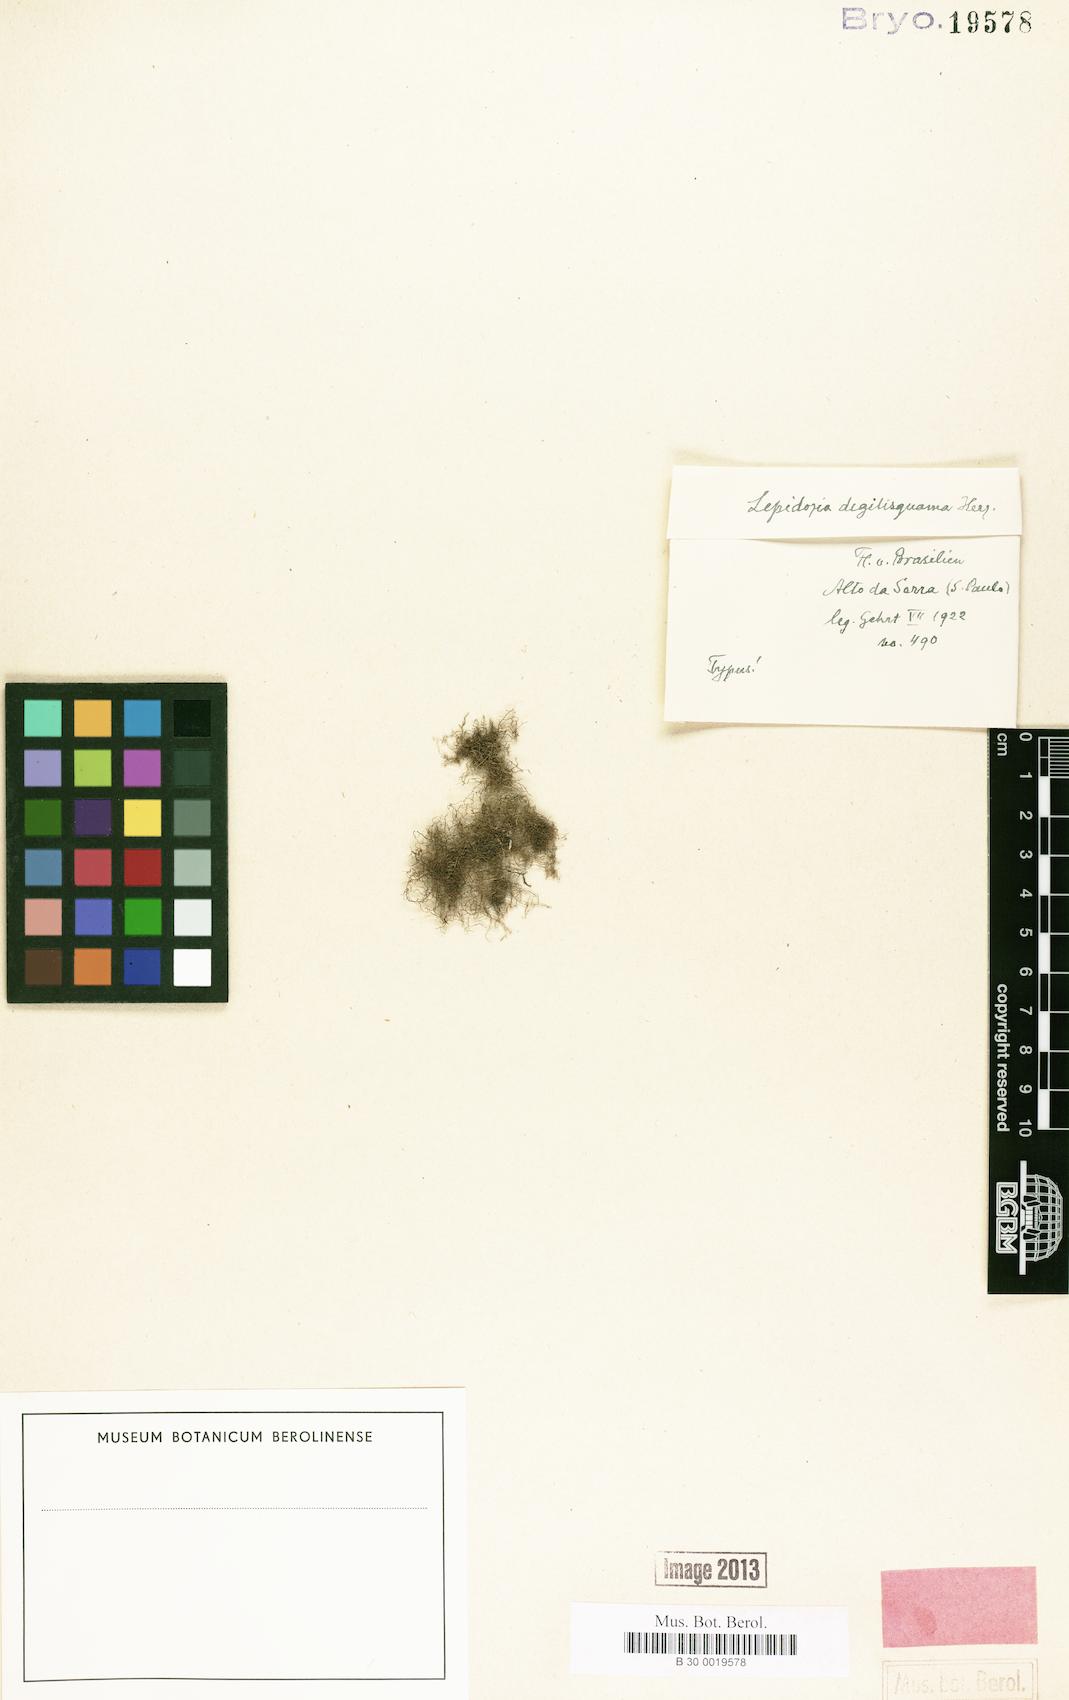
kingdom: Plantae
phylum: Marchantiophyta
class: Jungermanniopsida
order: Jungermanniales
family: Lepidoziaceae
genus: Lepidozia
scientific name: Lepidozia
